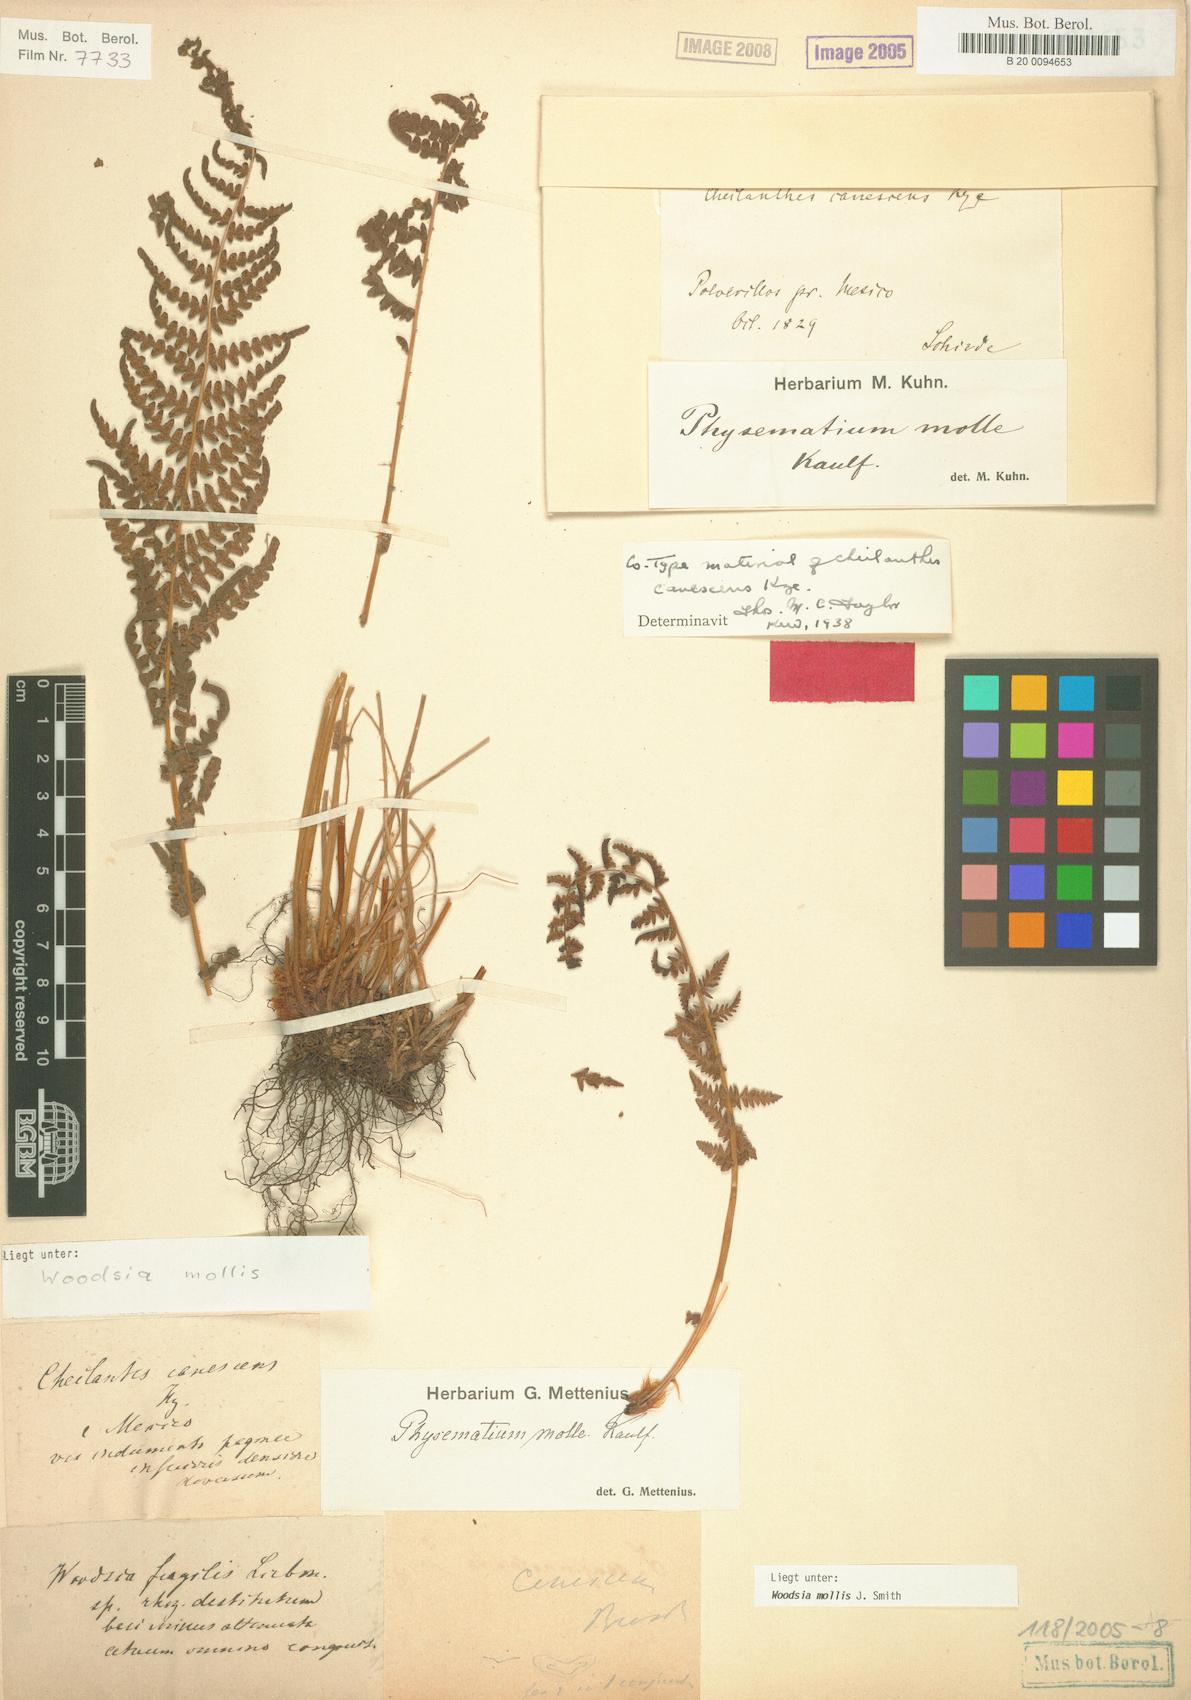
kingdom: Plantae
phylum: Tracheophyta
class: Polypodiopsida
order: Polypodiales
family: Woodsiaceae
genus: Physematium
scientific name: Physematium molle
